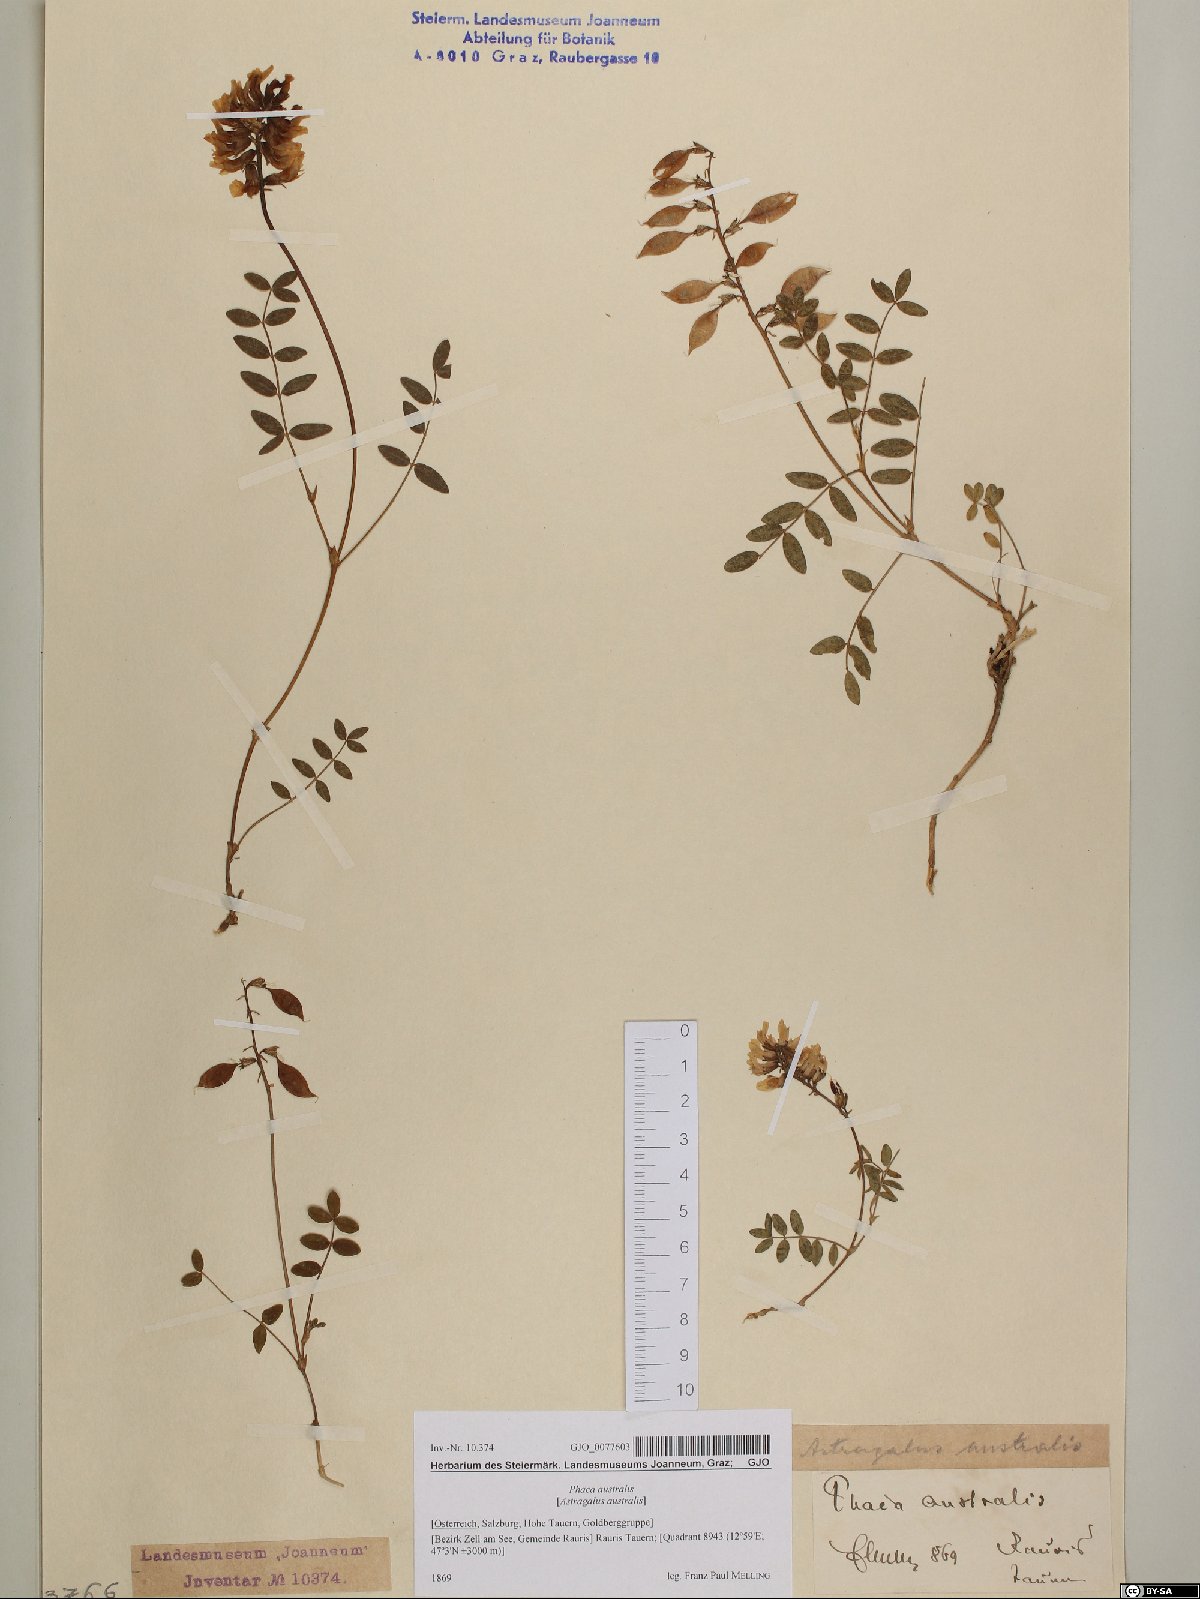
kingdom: Plantae
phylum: Tracheophyta
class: Magnoliopsida
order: Fabales
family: Fabaceae
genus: Astragalus
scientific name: Astragalus australis
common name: Indian milk-vetch
